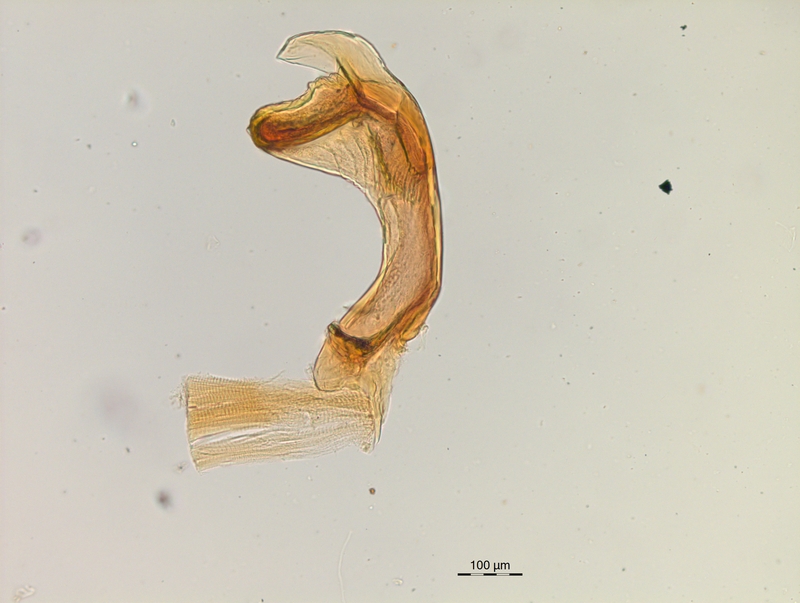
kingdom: Animalia
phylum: Arthropoda
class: Diplopoda
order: Chordeumatida
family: Craspedosomatidae
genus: Craspedosoma
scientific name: Craspedosoma rawlinsii
